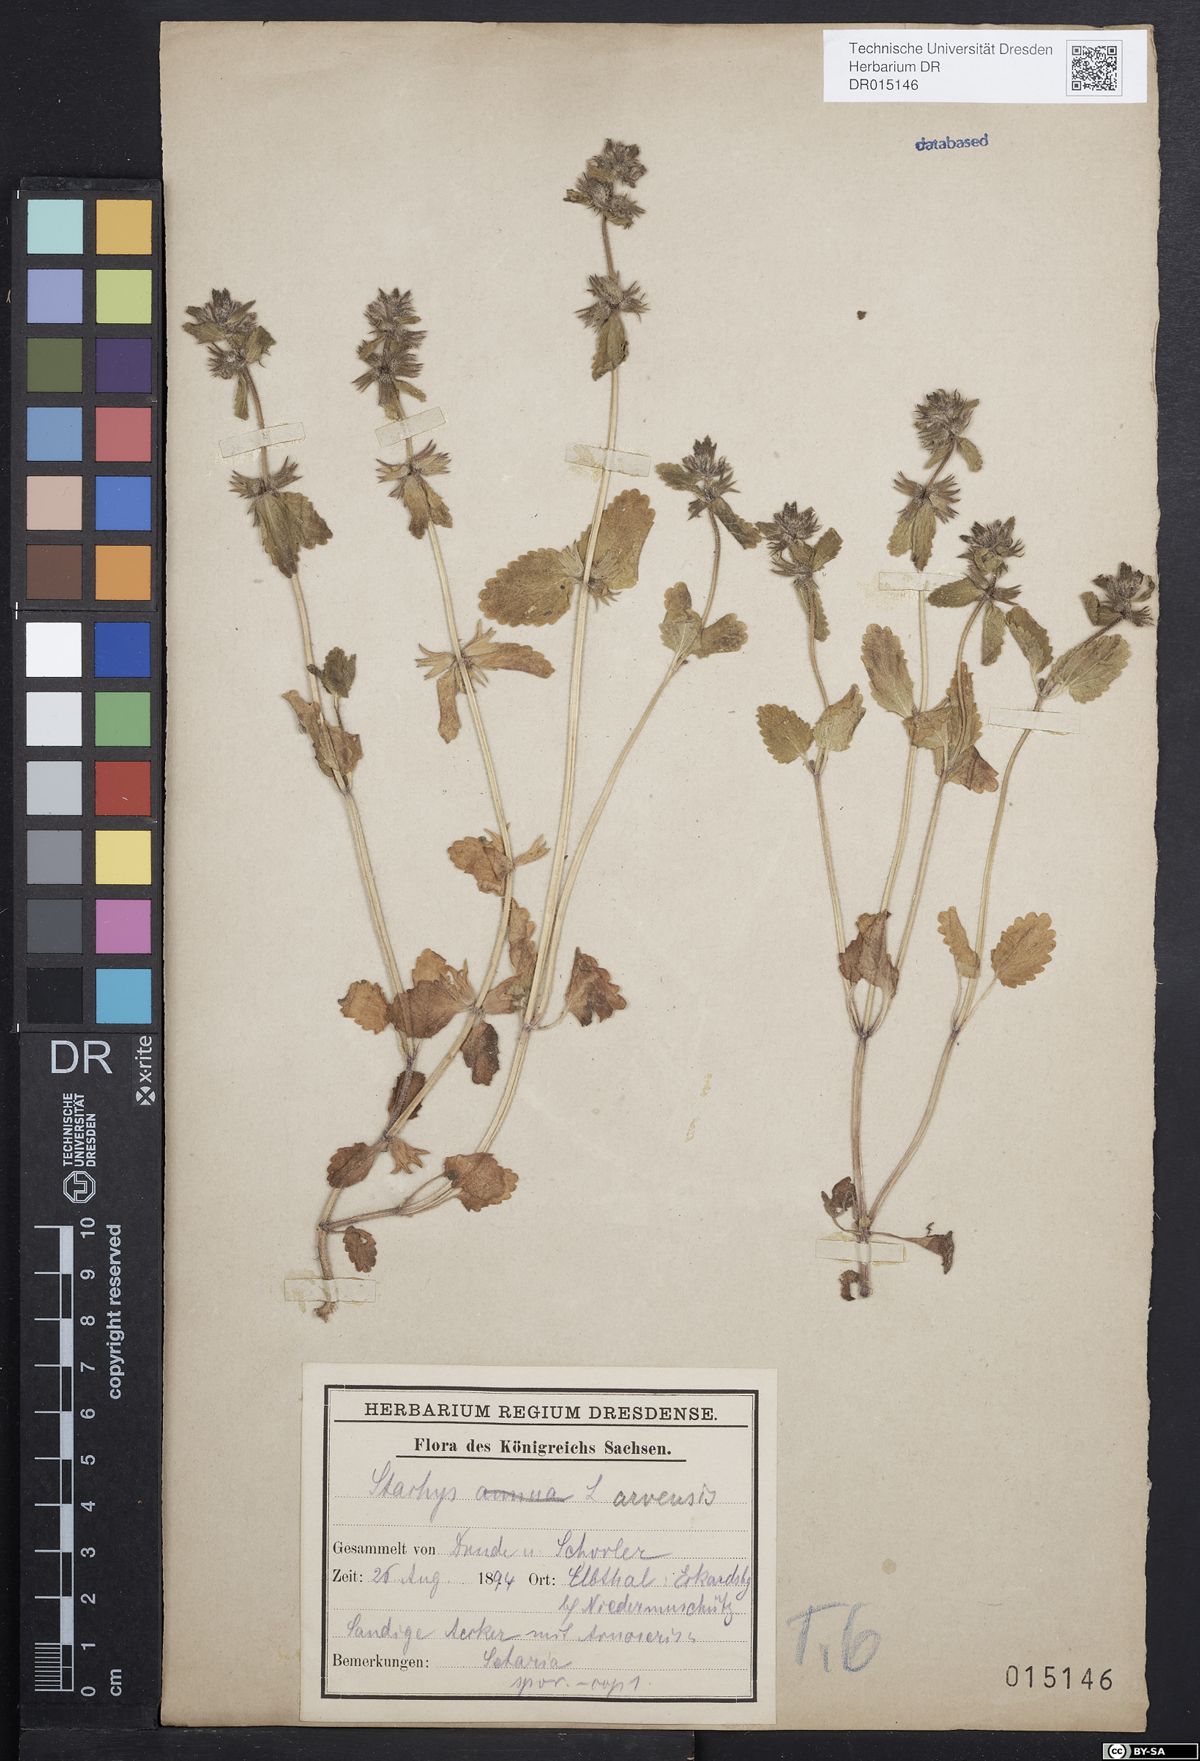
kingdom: Plantae
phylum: Tracheophyta
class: Magnoliopsida
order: Lamiales
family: Lamiaceae
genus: Stachys
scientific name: Stachys arvensis
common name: Field woundwort
